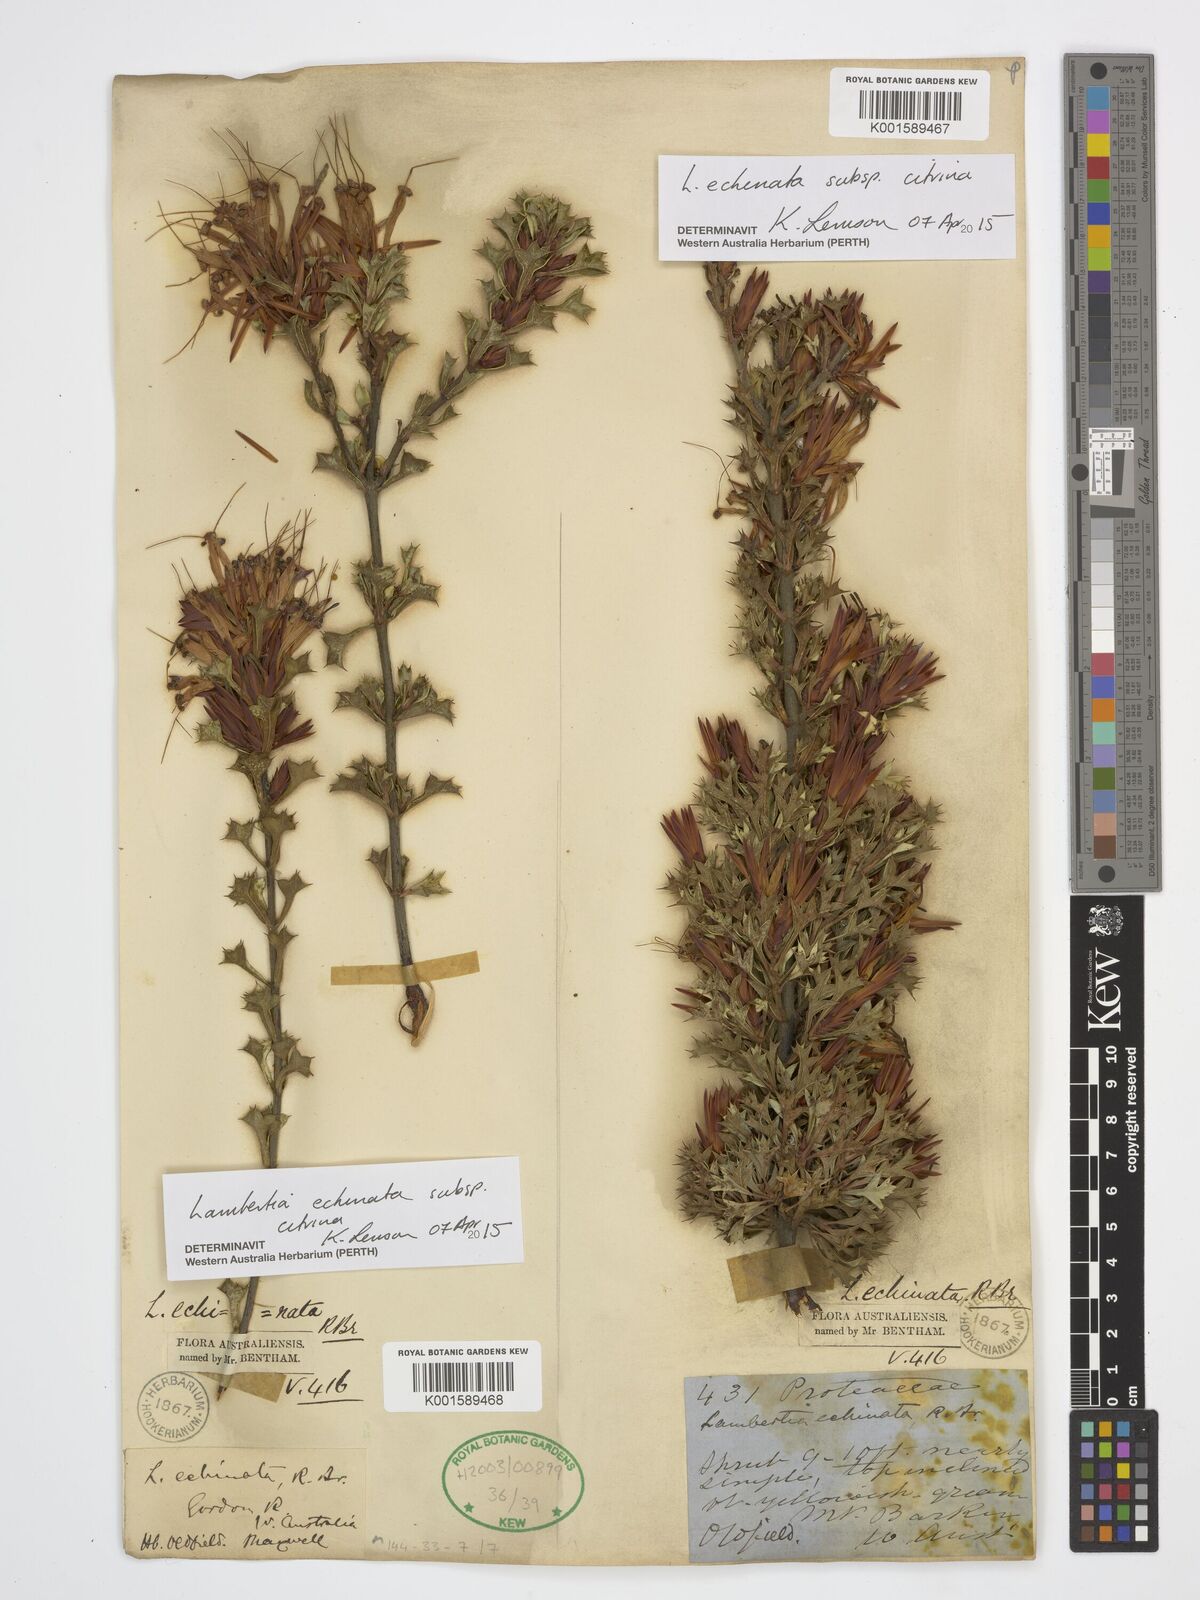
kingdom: Plantae
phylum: Tracheophyta
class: Magnoliopsida
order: Proteales
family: Proteaceae
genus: Lambertia
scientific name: Lambertia echinata
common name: Prickly honeysuckle
